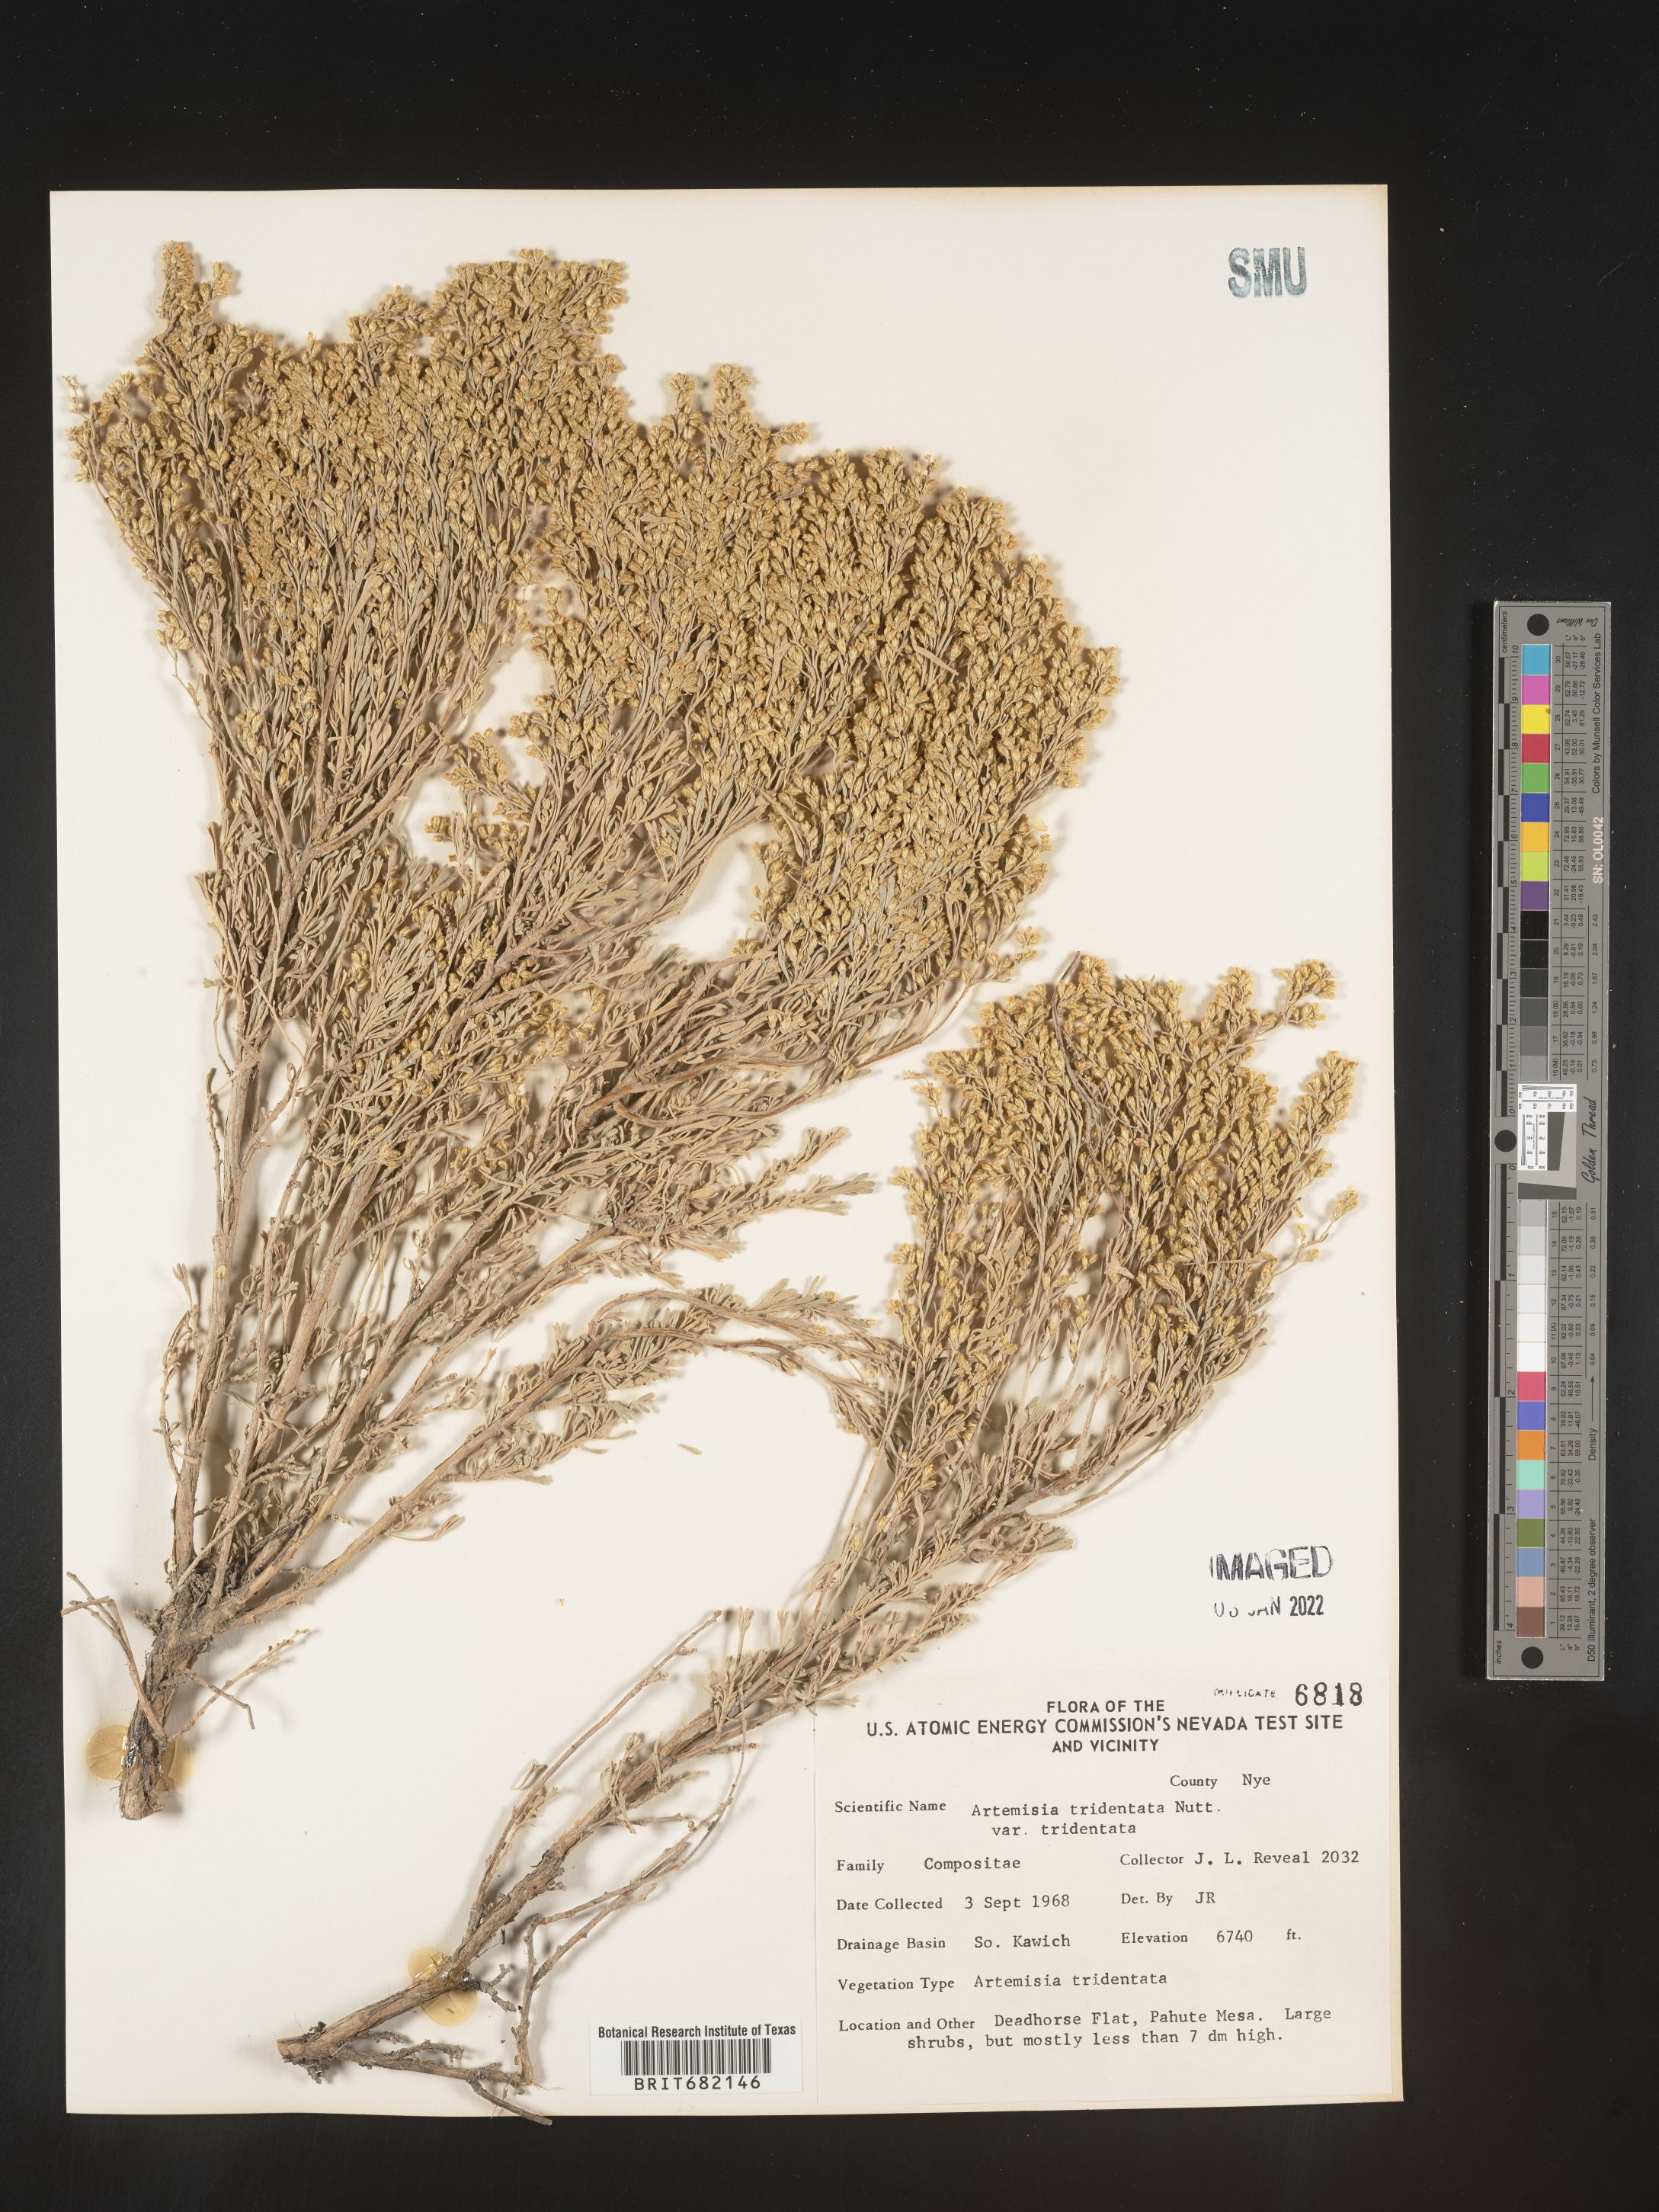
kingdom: Plantae
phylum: Tracheophyta
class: Magnoliopsida
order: Asterales
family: Asteraceae
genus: Artemisia
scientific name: Artemisia tridentata
